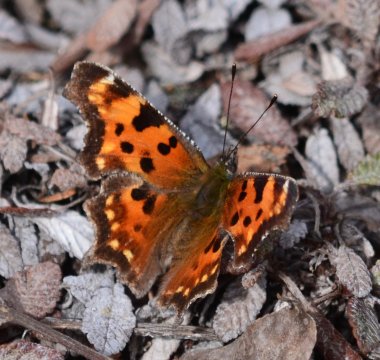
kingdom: Animalia
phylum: Arthropoda
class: Insecta
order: Lepidoptera
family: Nymphalidae
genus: Polygonia
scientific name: Polygonia faunus
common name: Green Comma
